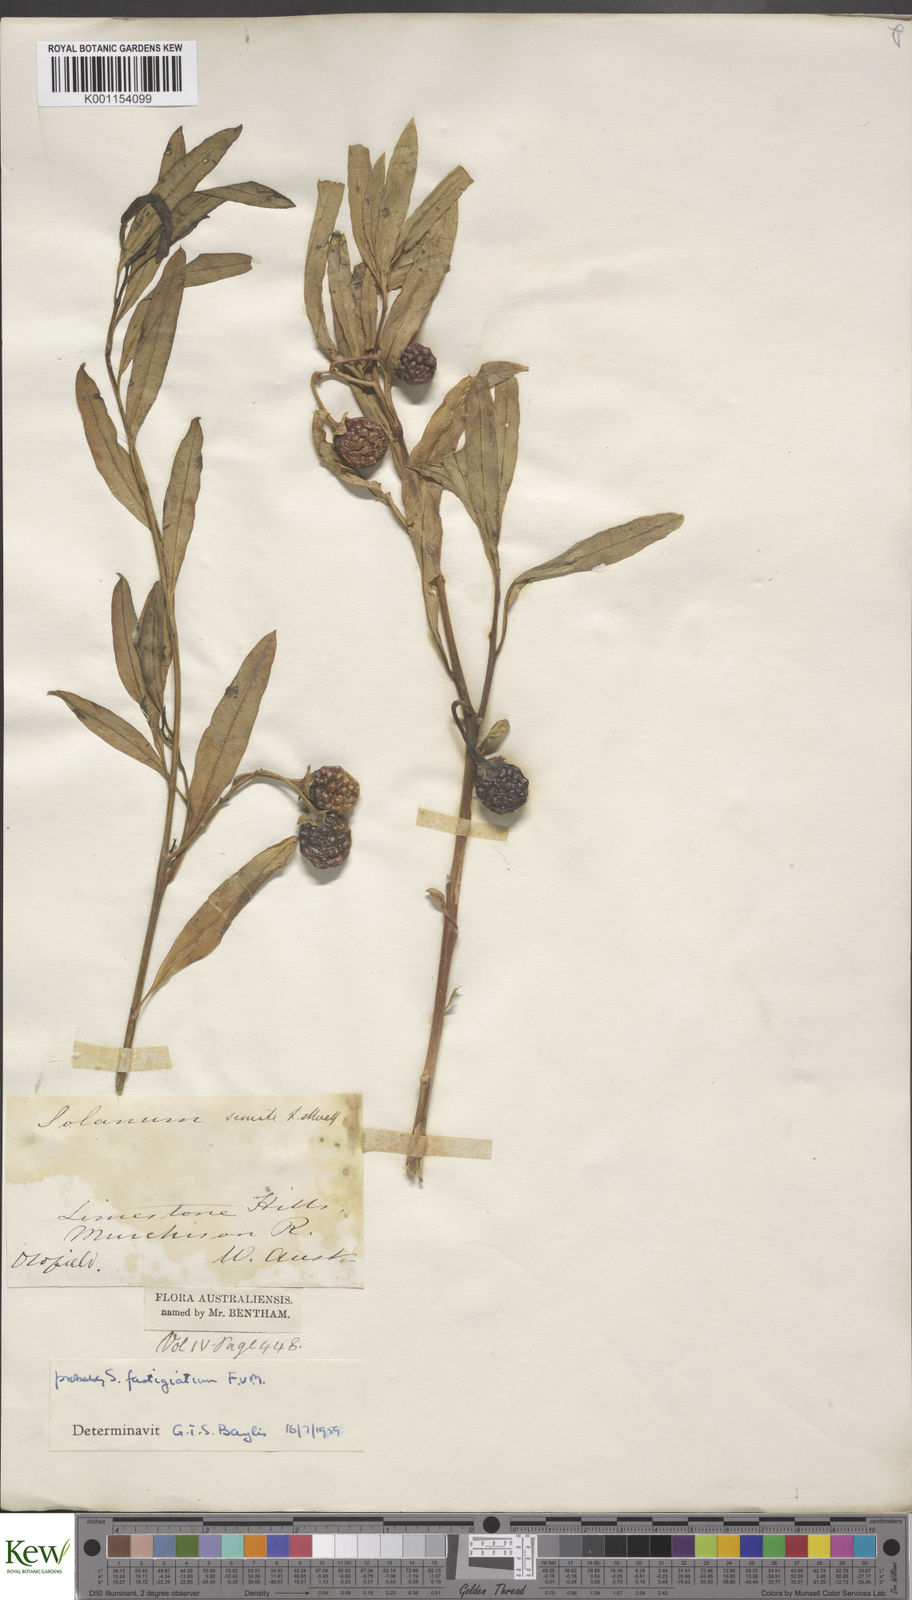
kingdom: Plantae
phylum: Tracheophyta
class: Magnoliopsida
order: Solanales
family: Solanaceae
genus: Solanum
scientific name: Solanum symonii
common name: South australian kangaroo-apple
